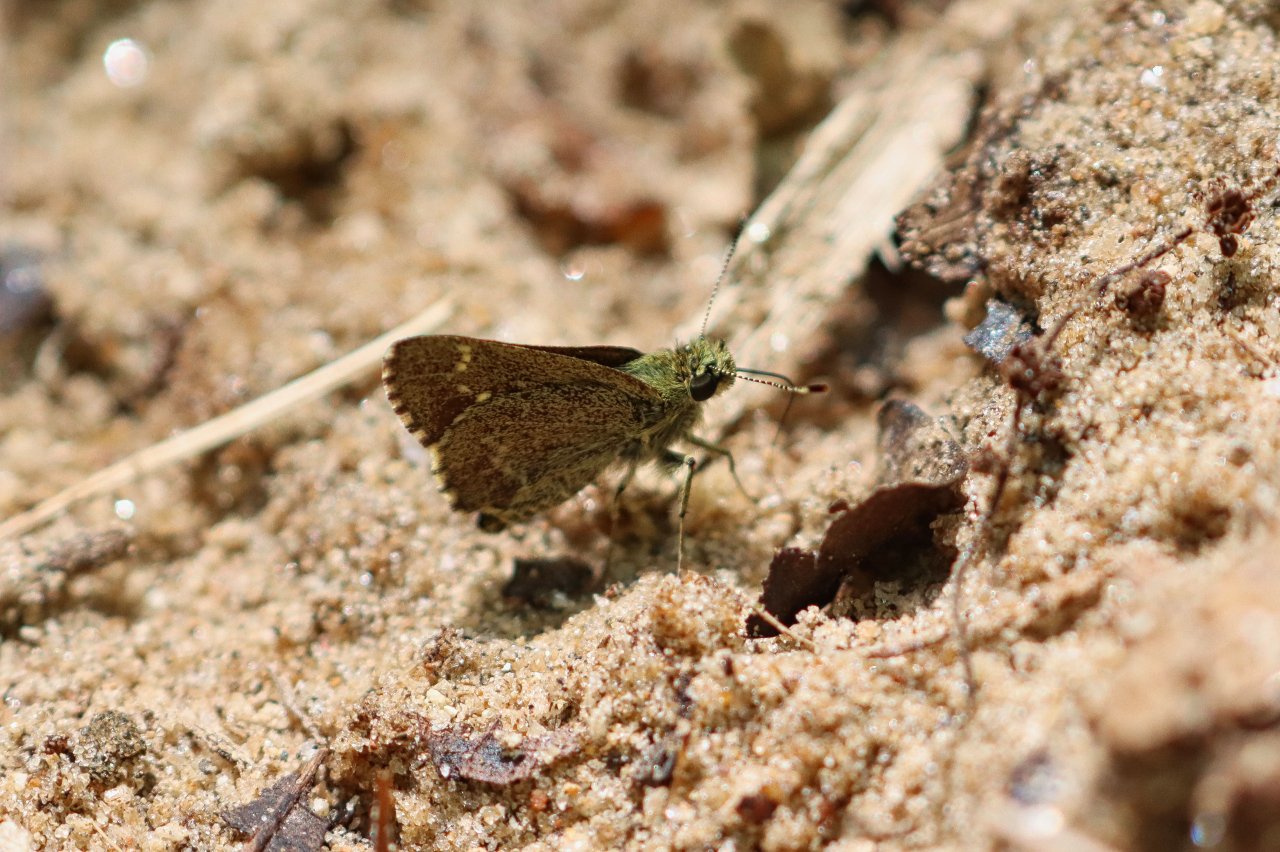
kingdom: Animalia
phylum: Arthropoda
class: Insecta
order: Lepidoptera
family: Hesperiidae
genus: Mastor
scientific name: Mastor vialis
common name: Common Roadside-Skipper
